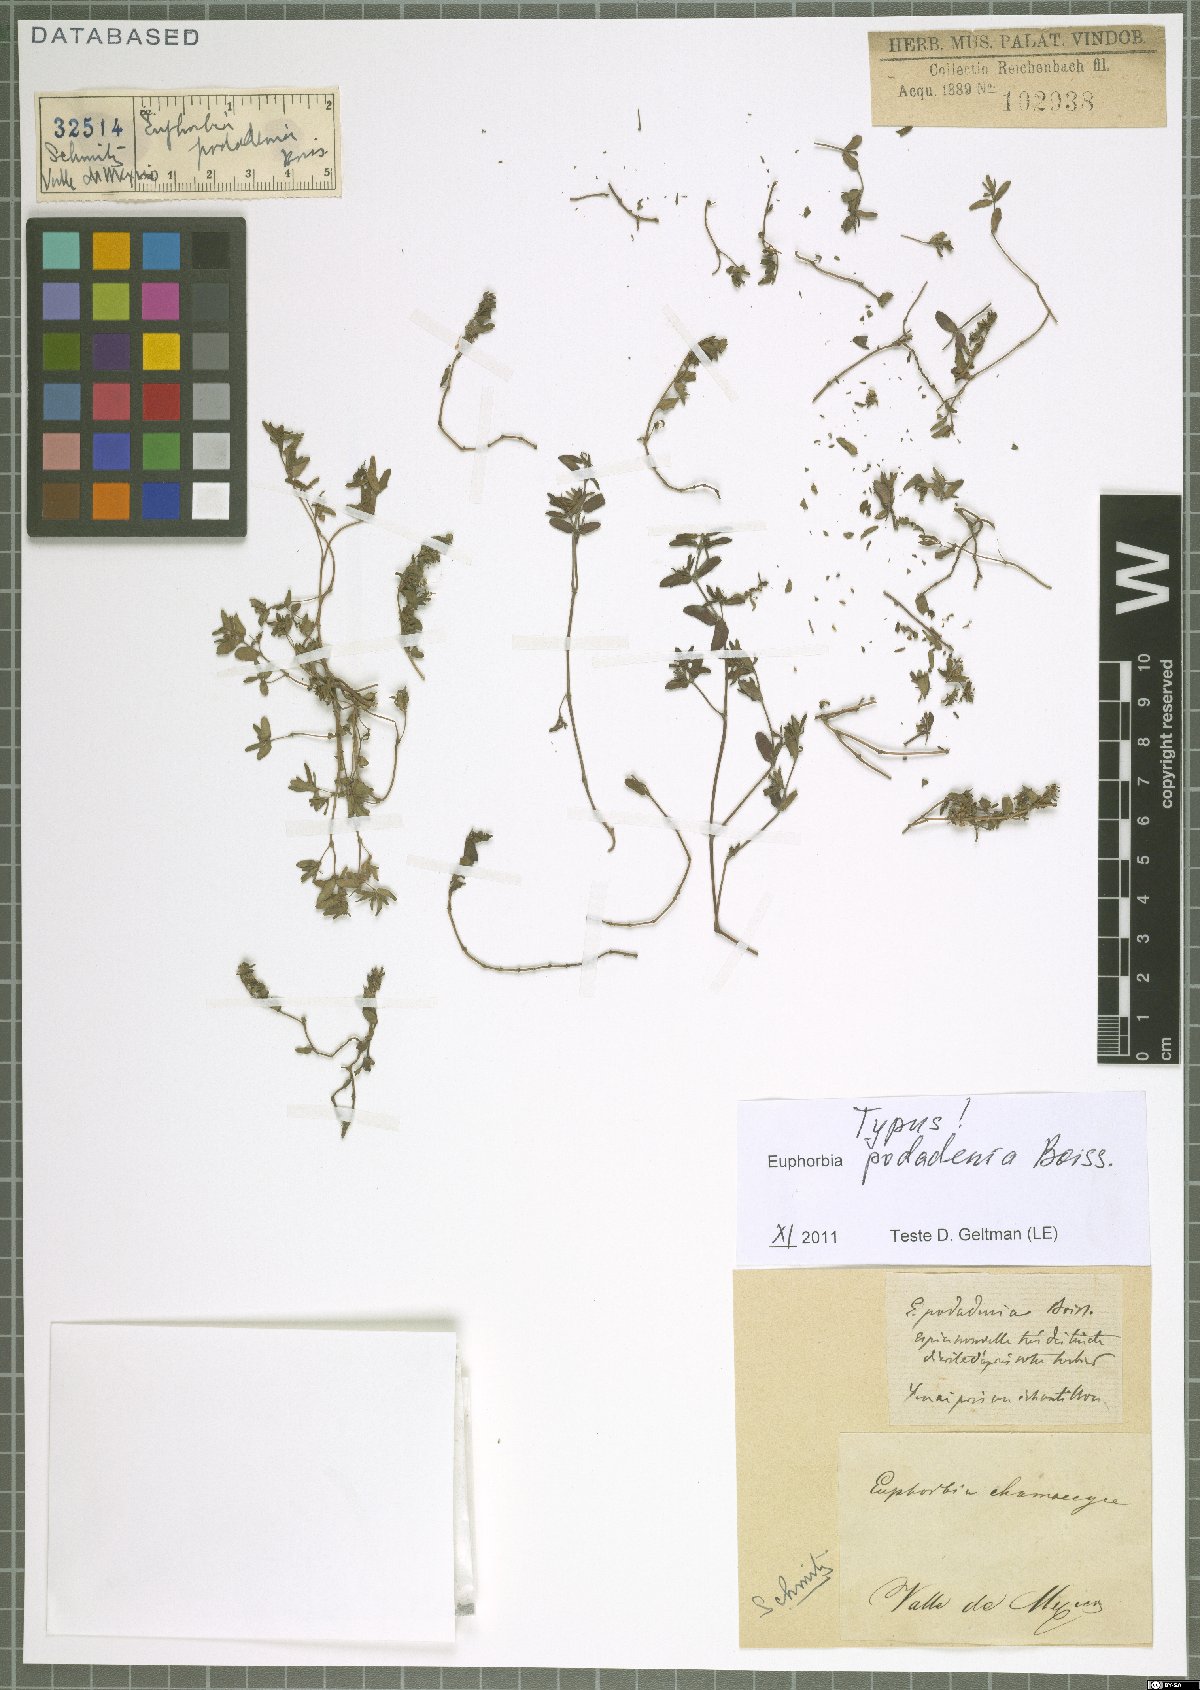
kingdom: Plantae
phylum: Tracheophyta
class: Magnoliopsida
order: Malpighiales
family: Euphorbiaceae
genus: Euphorbia
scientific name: Euphorbia podadenia
